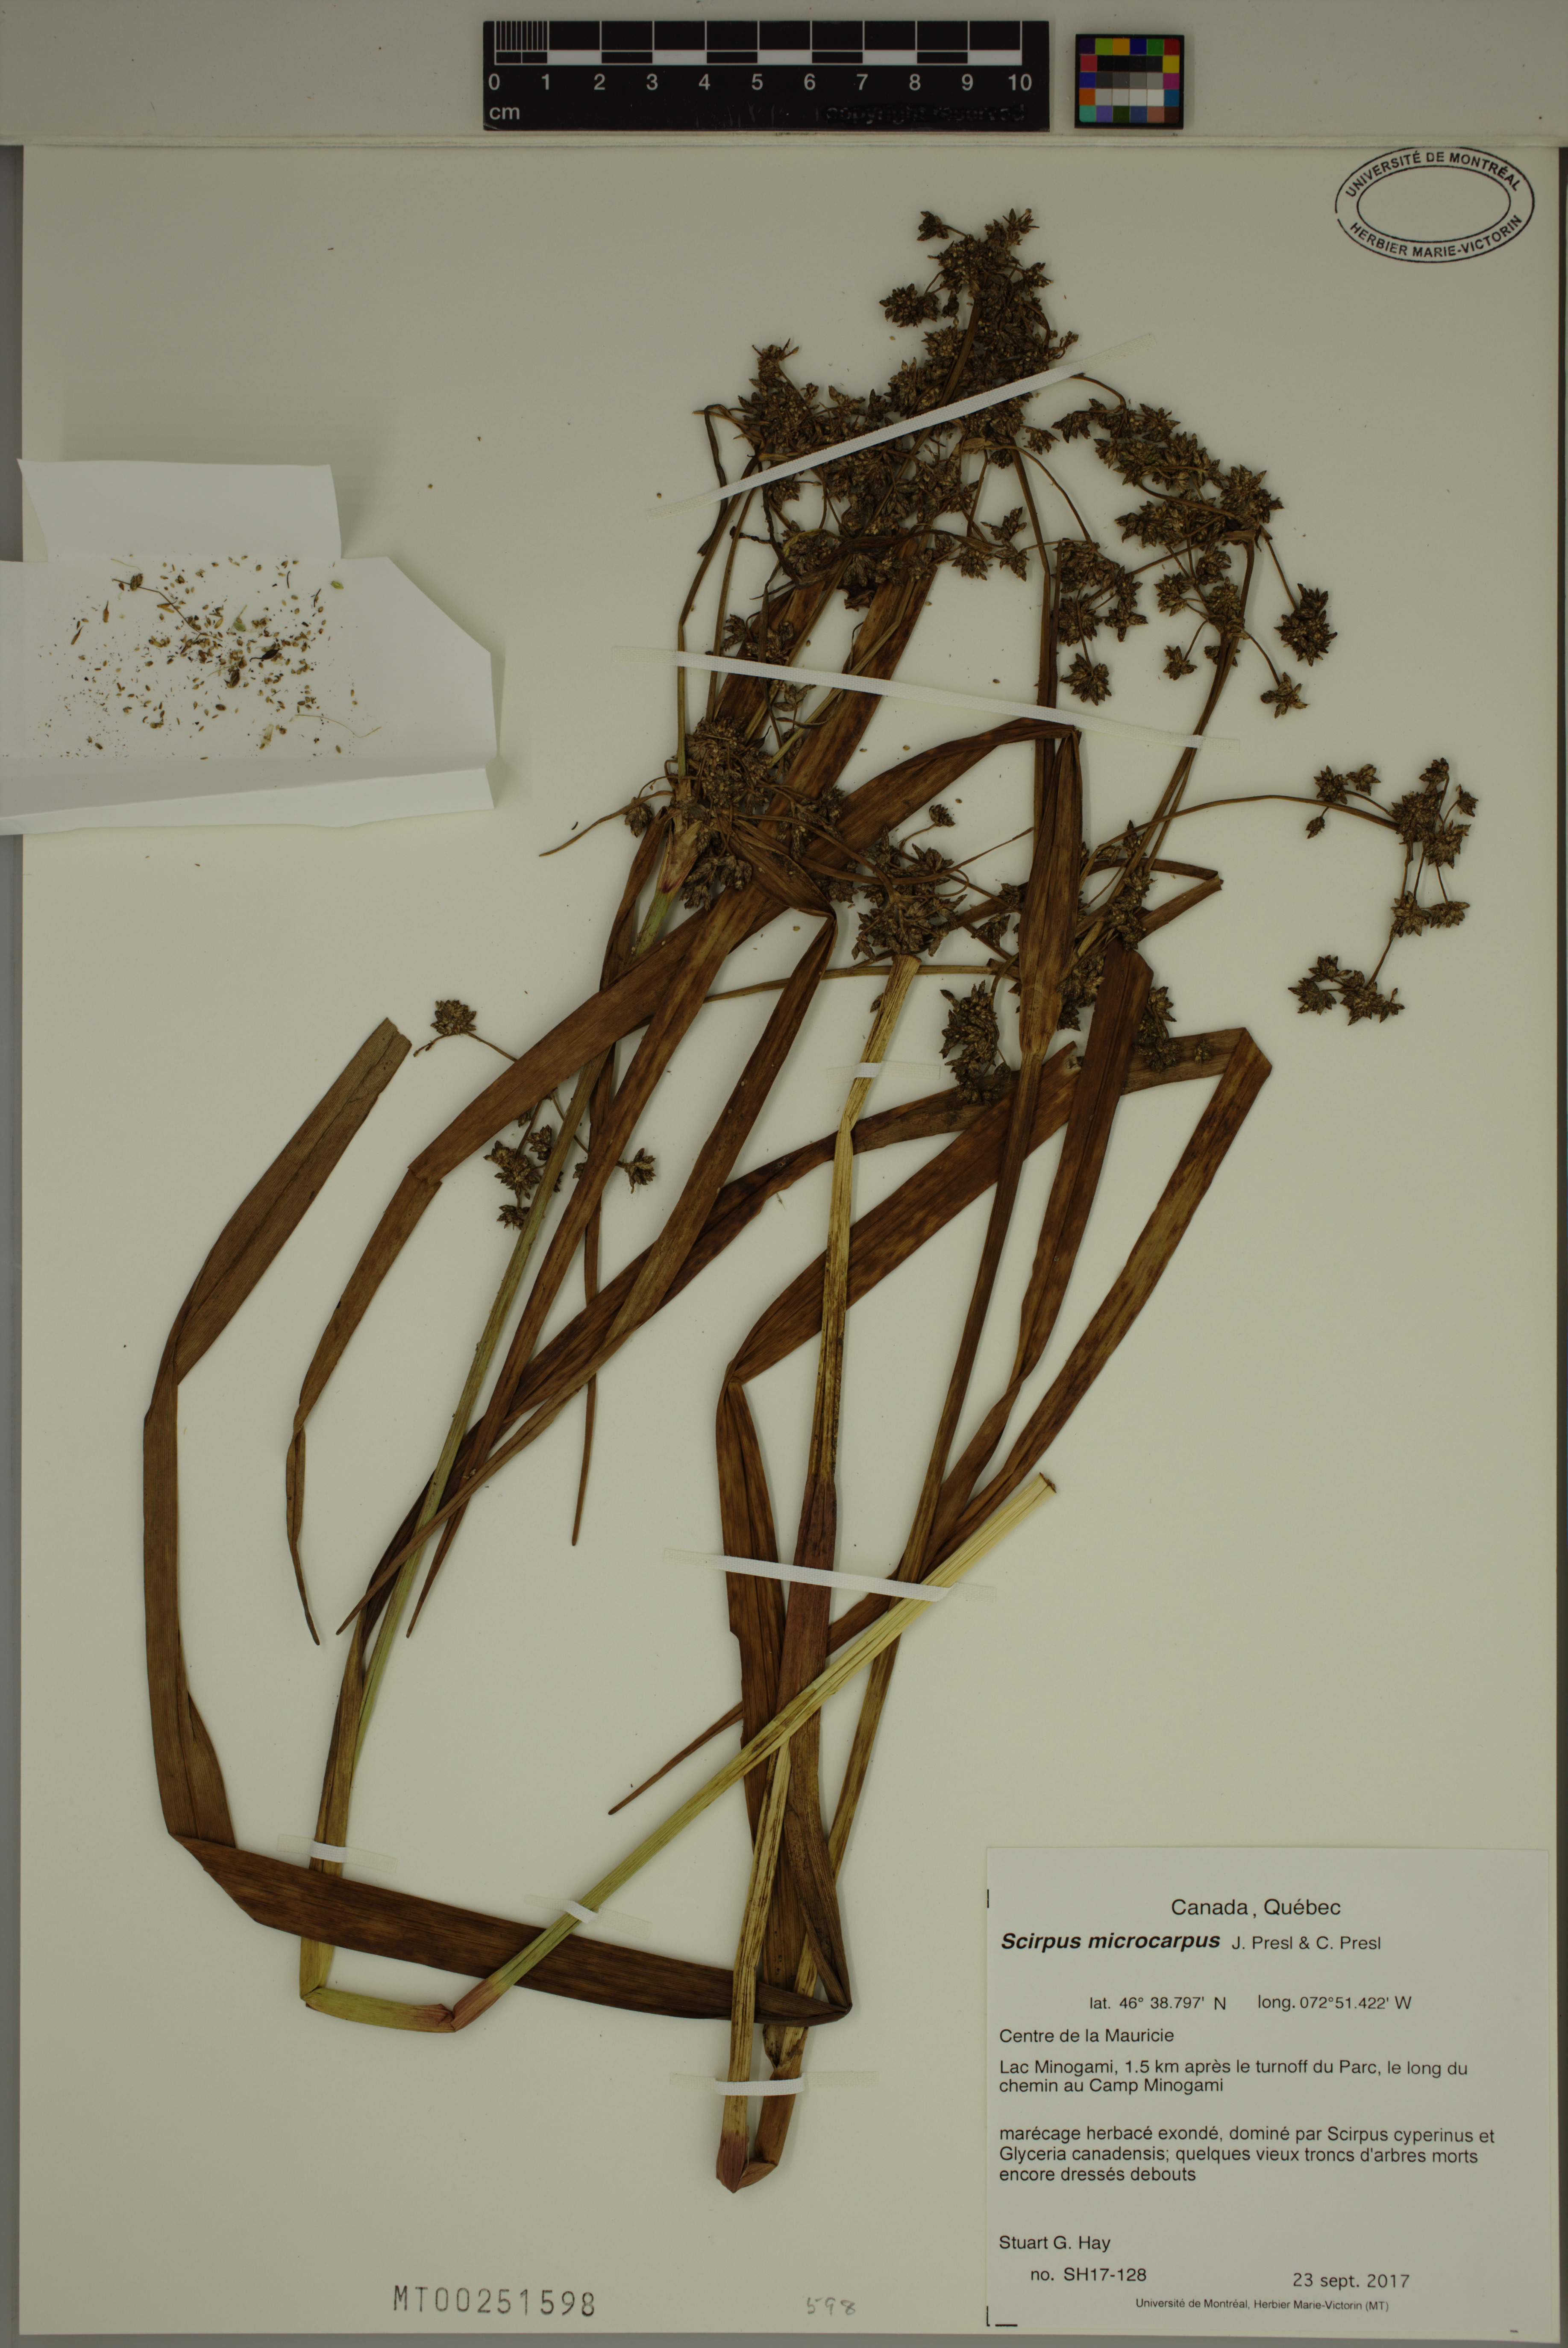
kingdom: Plantae
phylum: Tracheophyta
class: Liliopsida
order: Poales
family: Cyperaceae
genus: Scirpus
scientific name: Scirpus microcarpus
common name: Panicled bulrush
